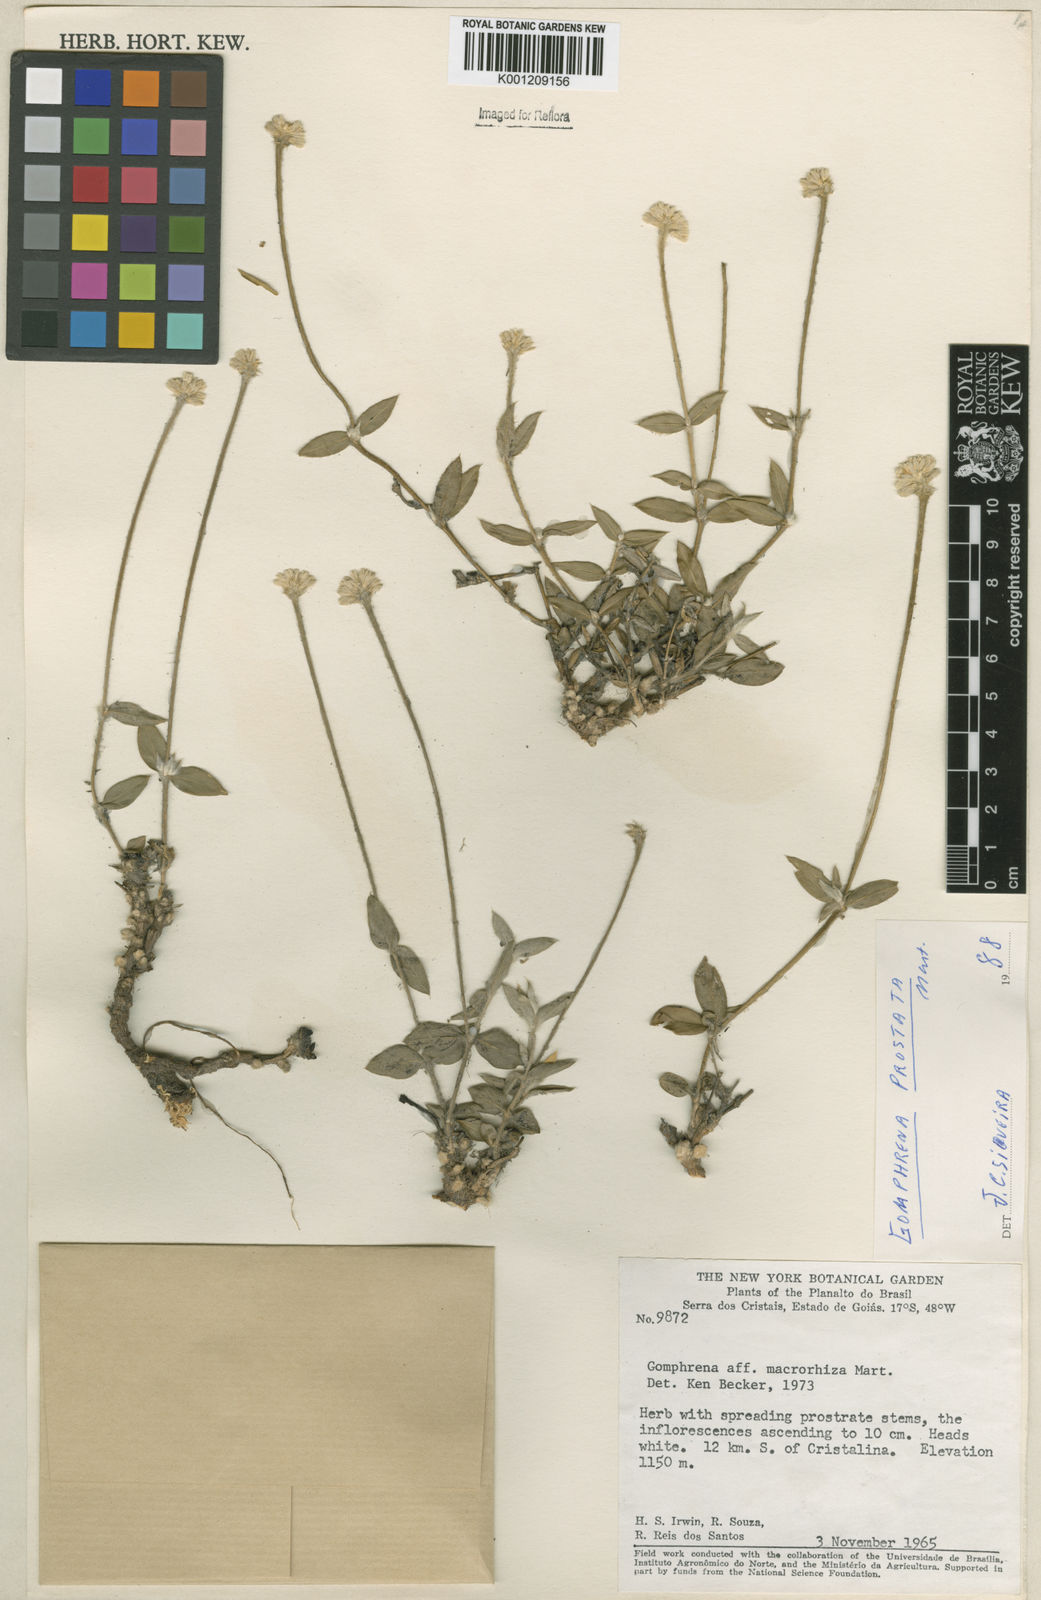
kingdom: Plantae
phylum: Tracheophyta
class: Magnoliopsida
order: Caryophyllales
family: Amaranthaceae
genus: Gomphrena
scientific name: Gomphrena debilis
